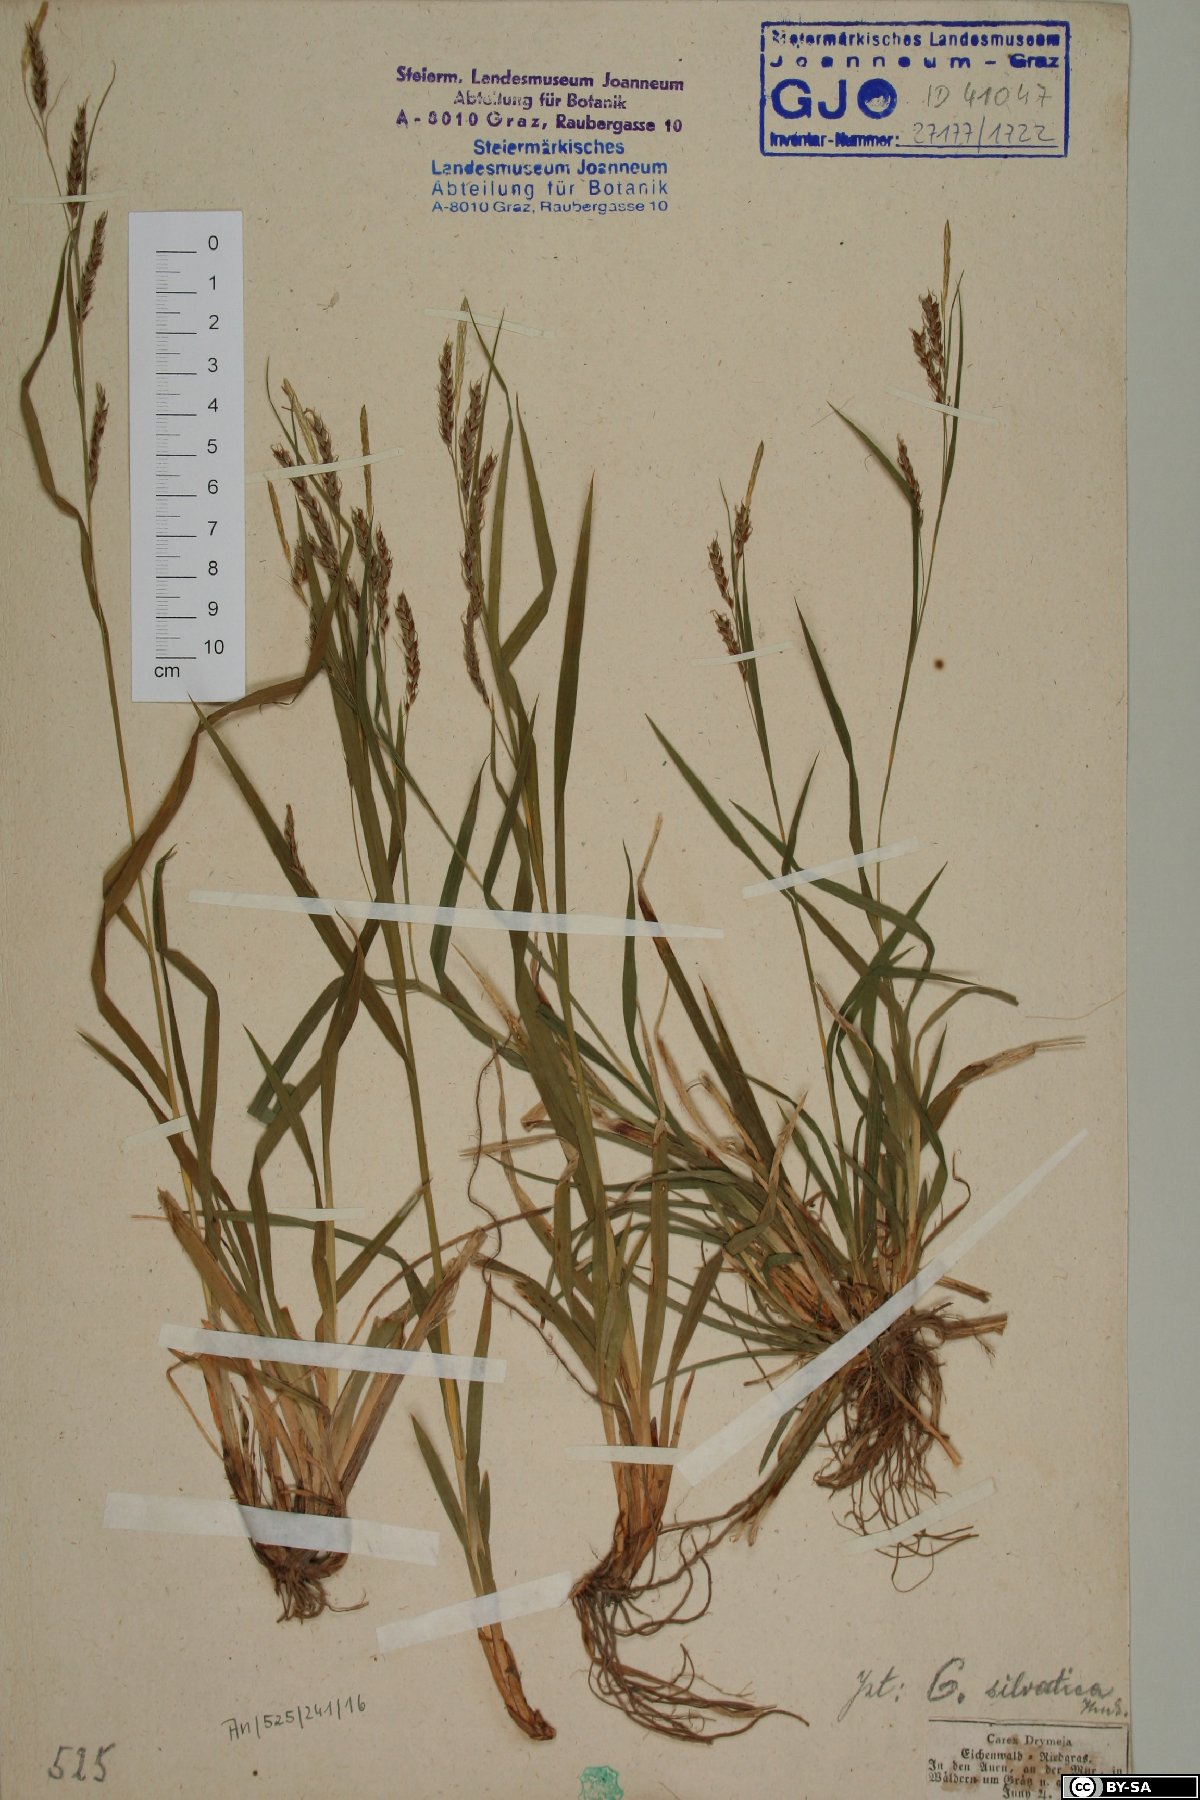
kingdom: Plantae
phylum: Tracheophyta
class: Liliopsida
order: Poales
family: Cyperaceae
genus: Carex
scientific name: Carex sylvatica
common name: Wood-sedge
